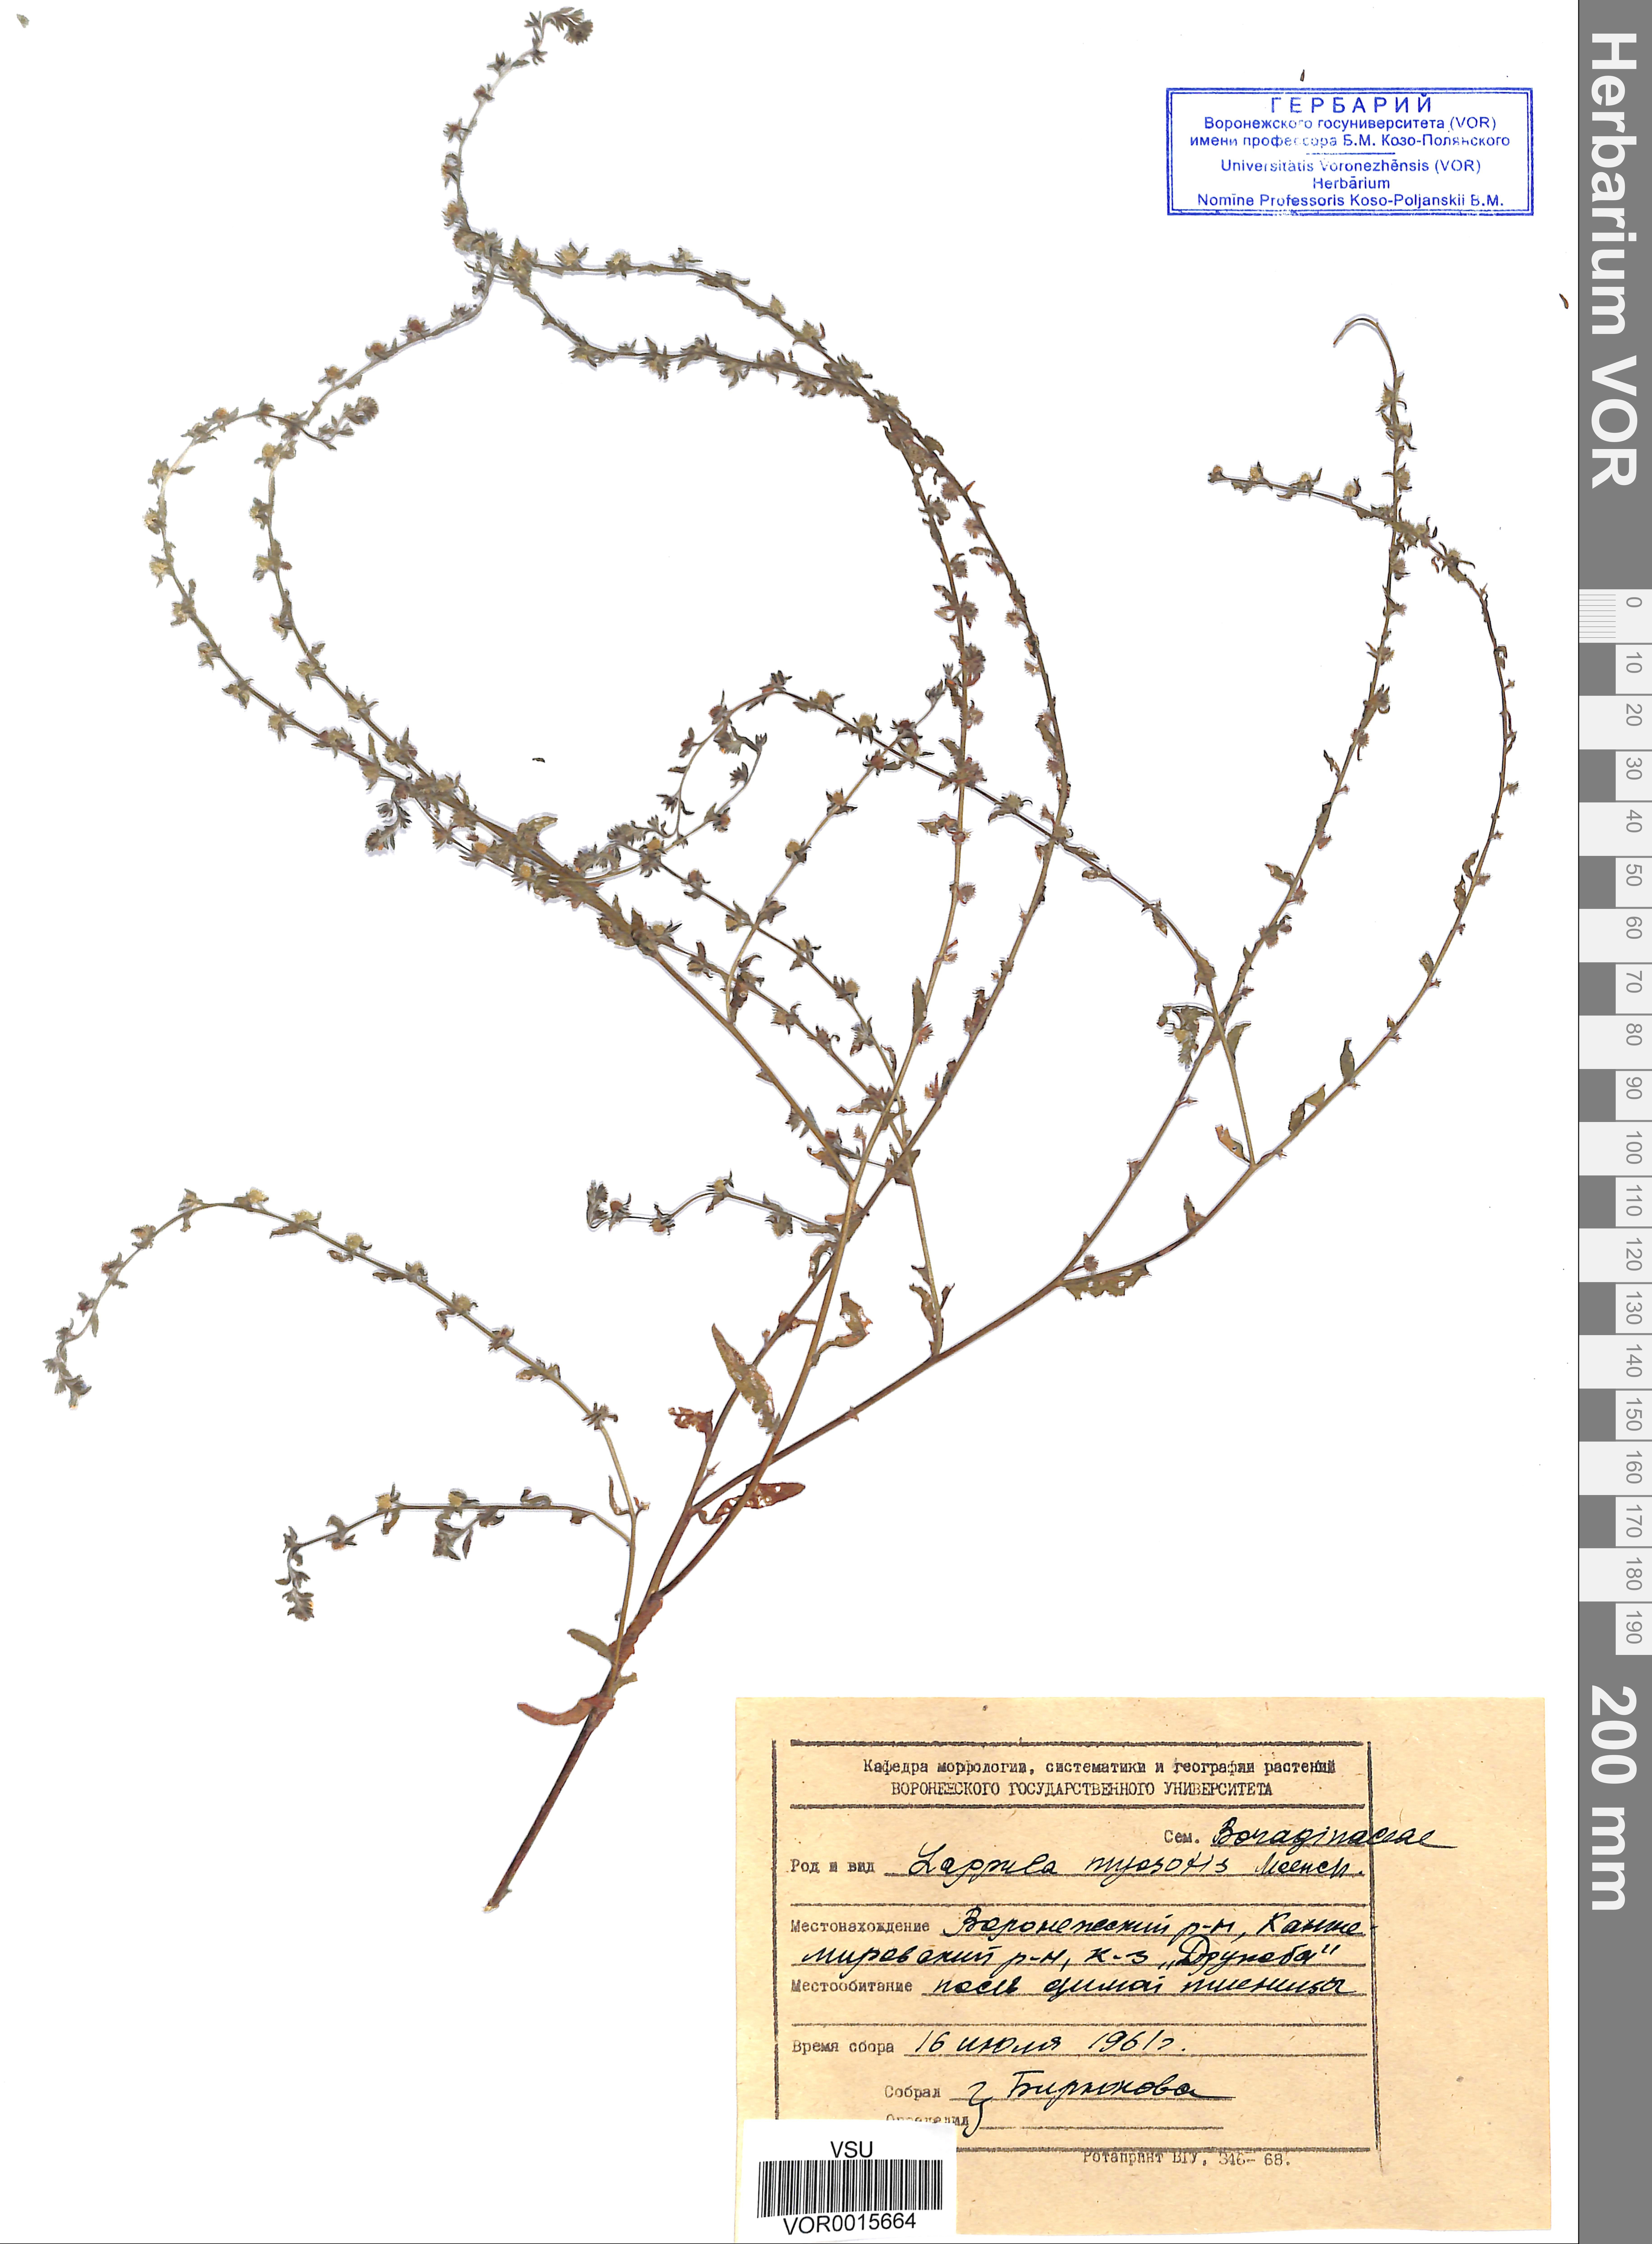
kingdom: Plantae
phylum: Tracheophyta
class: Magnoliopsida
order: Boraginales
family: Boraginaceae
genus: Lappula
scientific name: Lappula squarrosa
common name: European stickseed
